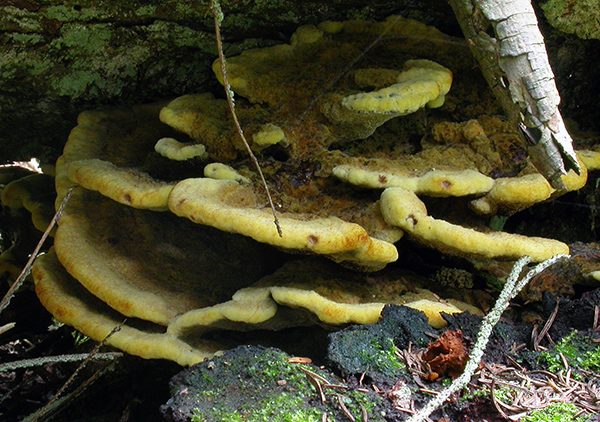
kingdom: Fungi
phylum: Basidiomycota
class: Agaricomycetes
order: Polyporales
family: Laetiporaceae
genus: Phaeolus
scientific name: Phaeolus schweinitzii
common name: brunporesvamp
